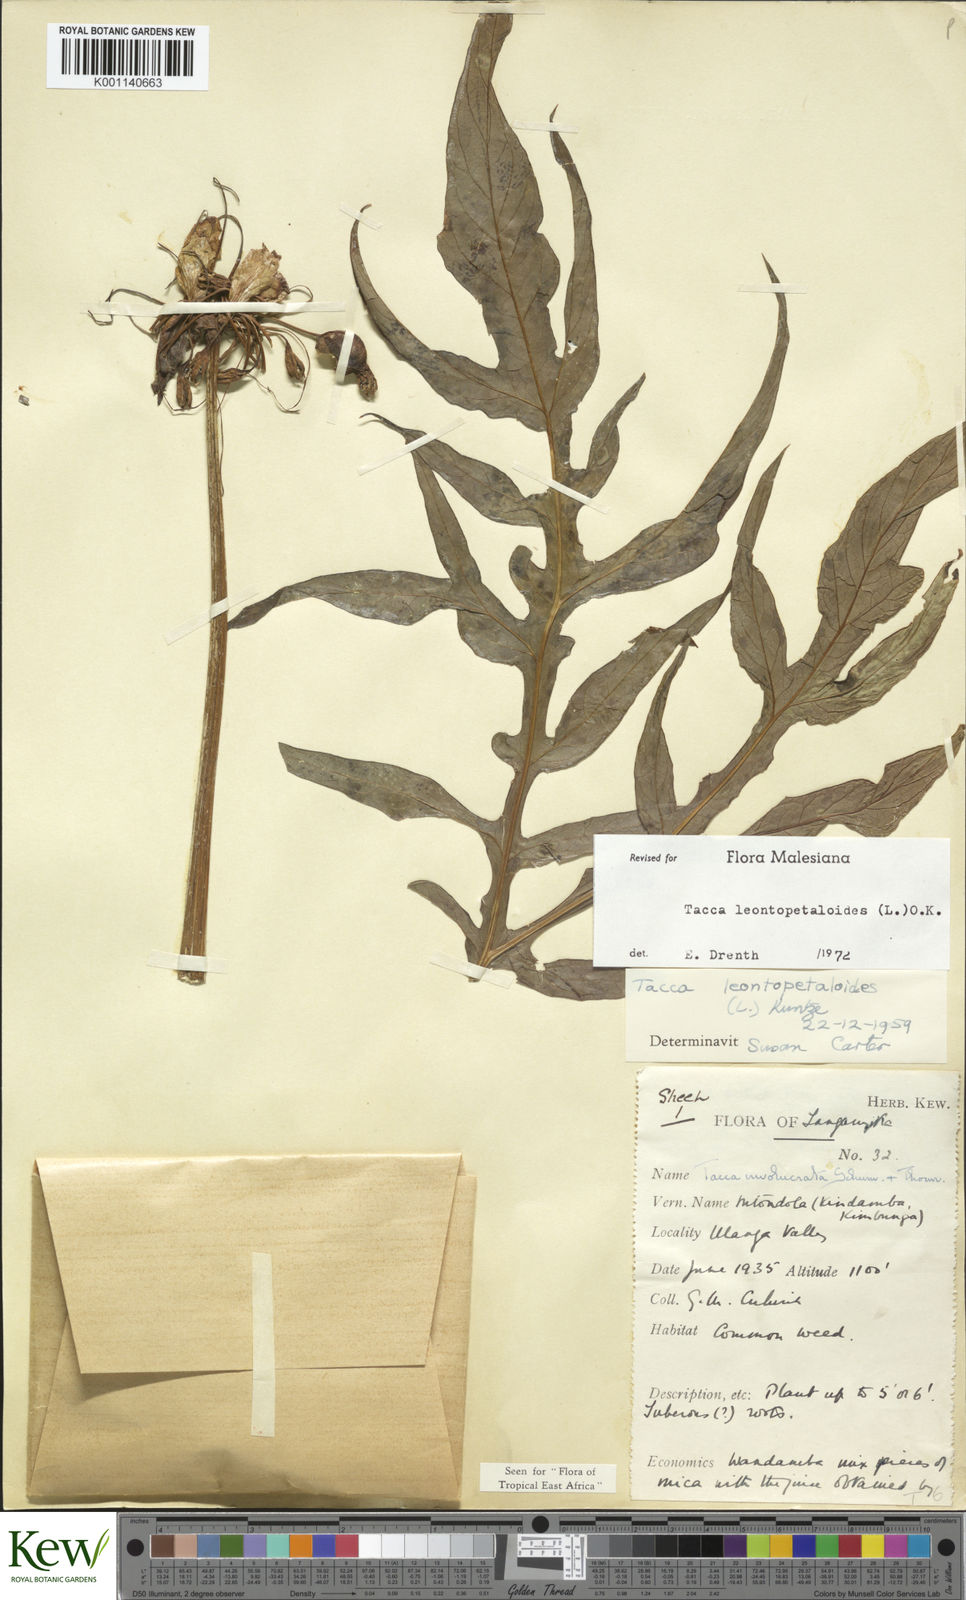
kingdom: Plantae
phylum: Tracheophyta
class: Liliopsida
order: Dioscoreales
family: Dioscoreaceae
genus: Tacca
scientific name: Tacca leontopetaloides
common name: Arrowroot
